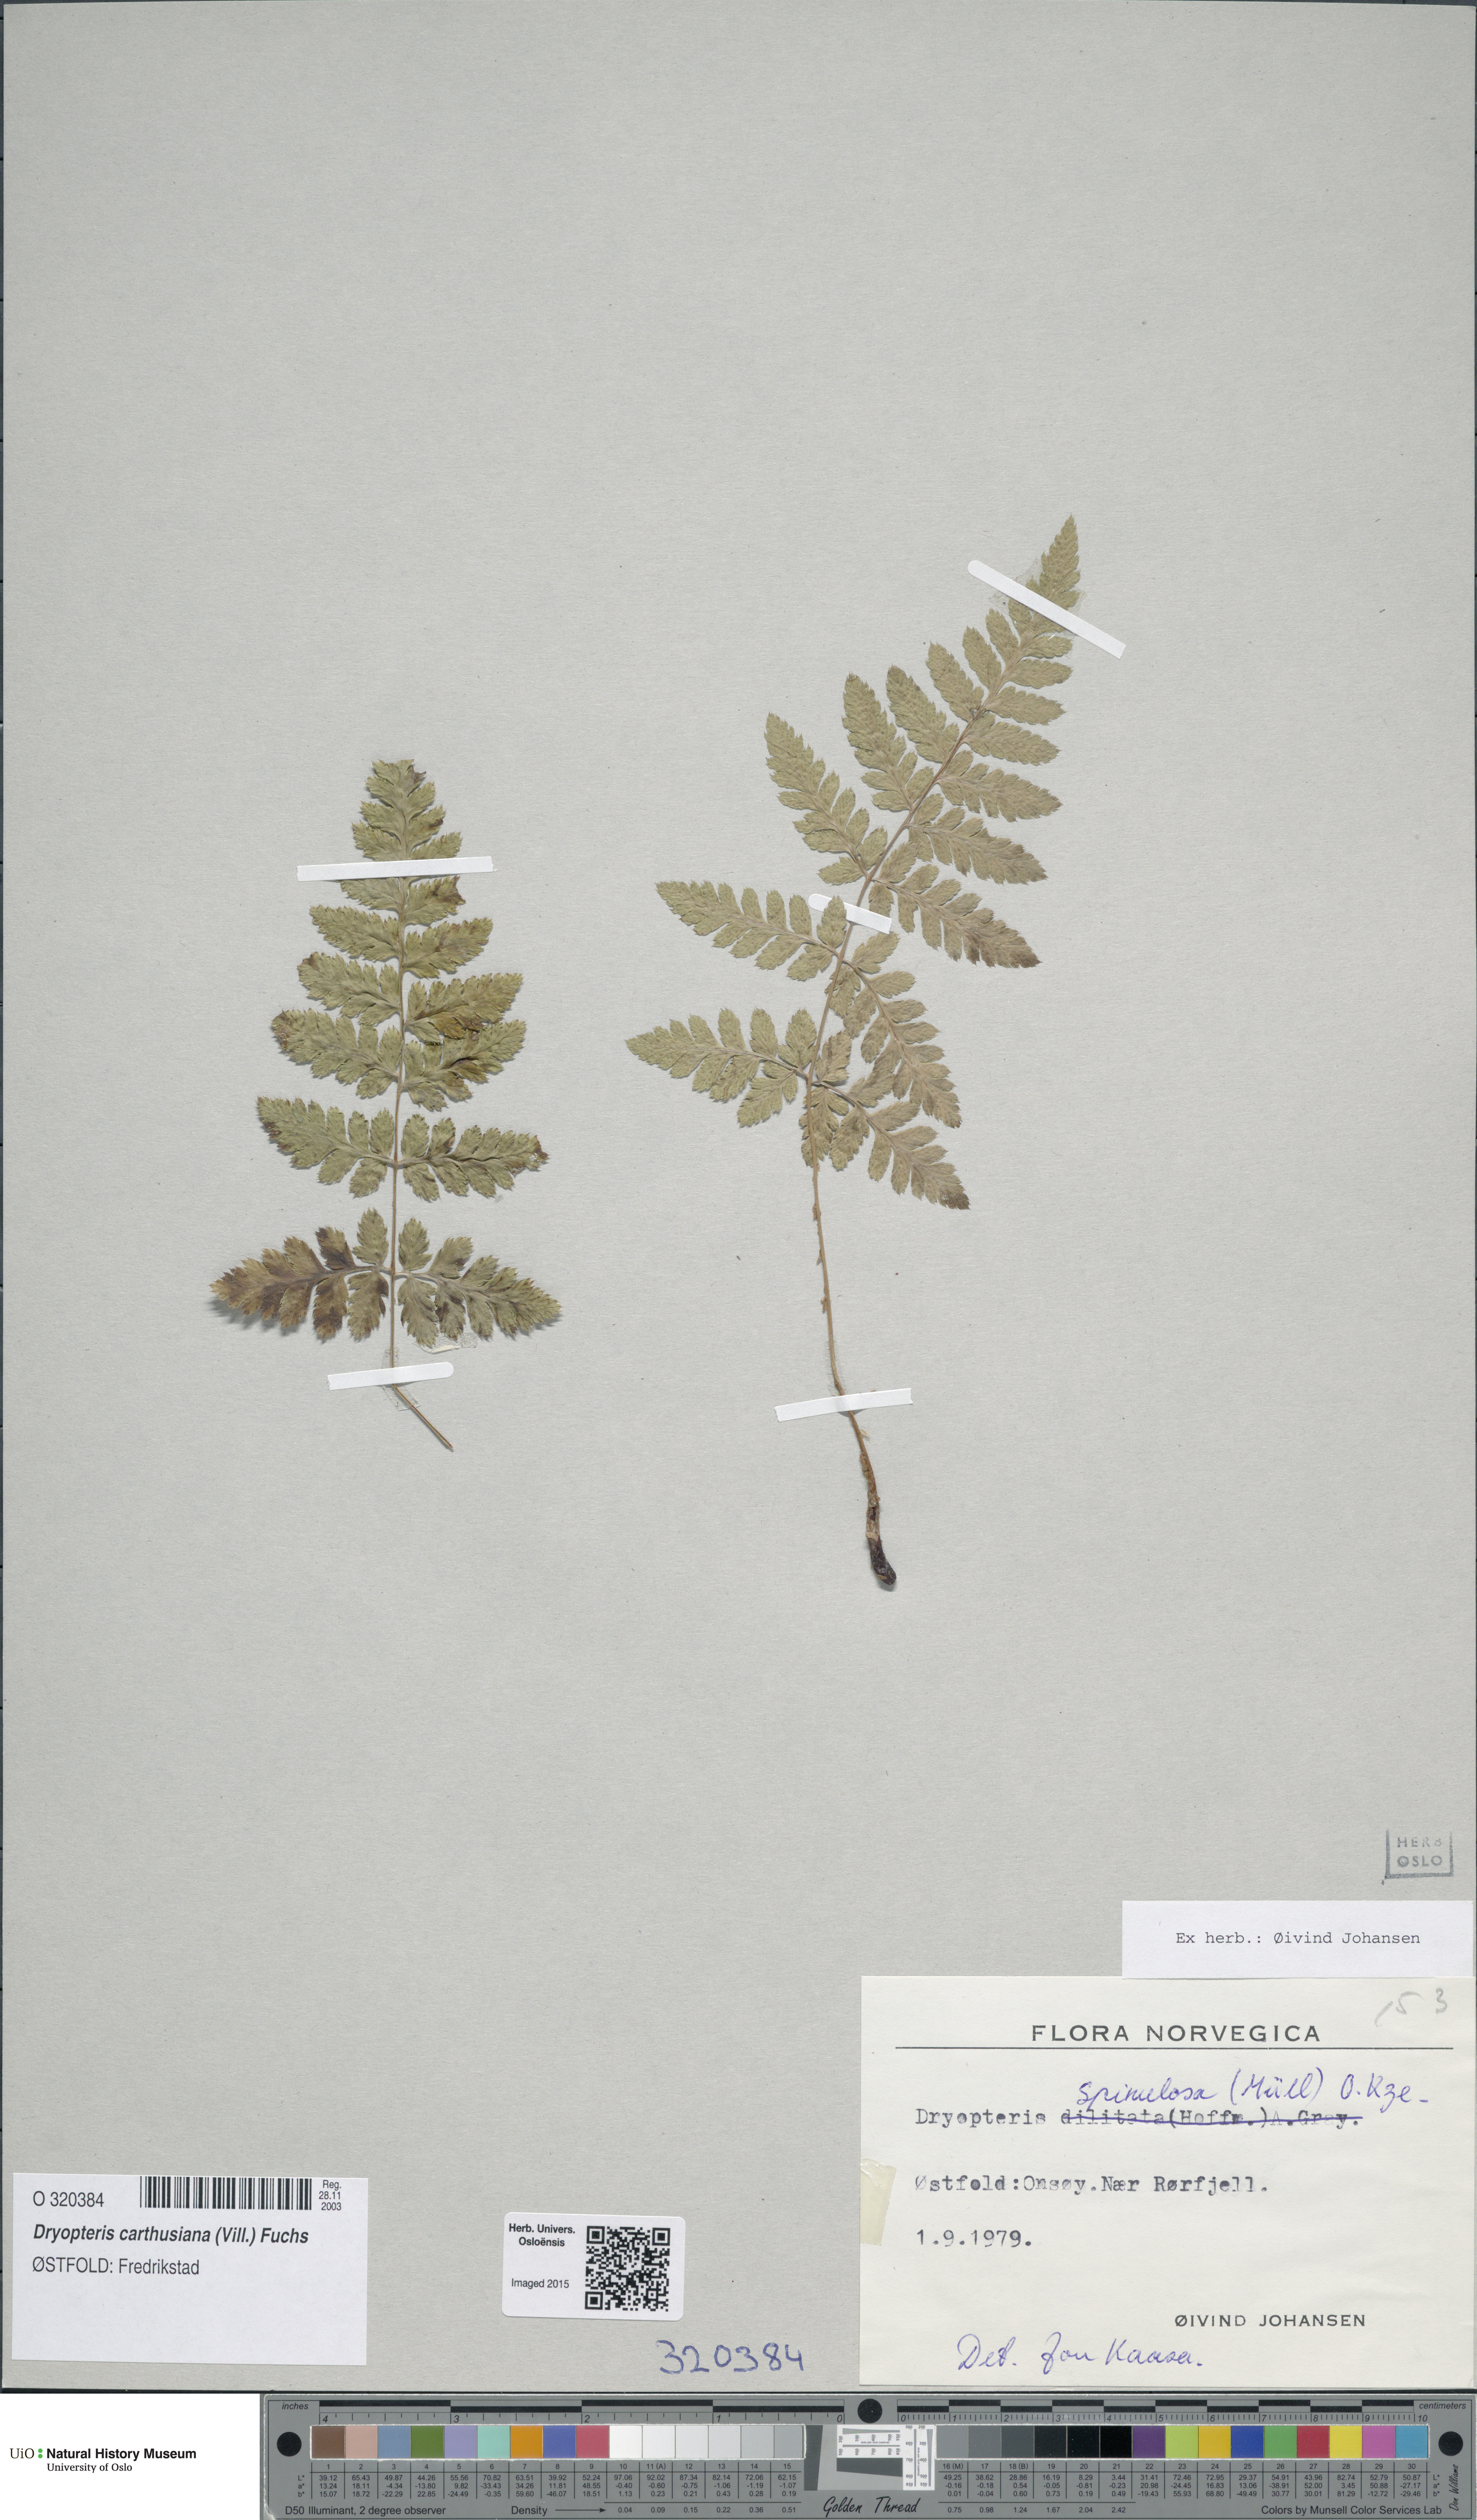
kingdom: Plantae
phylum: Tracheophyta
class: Polypodiopsida
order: Polypodiales
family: Dryopteridaceae
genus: Dryopteris
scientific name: Dryopteris carthusiana
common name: Narrow buckler-fern
